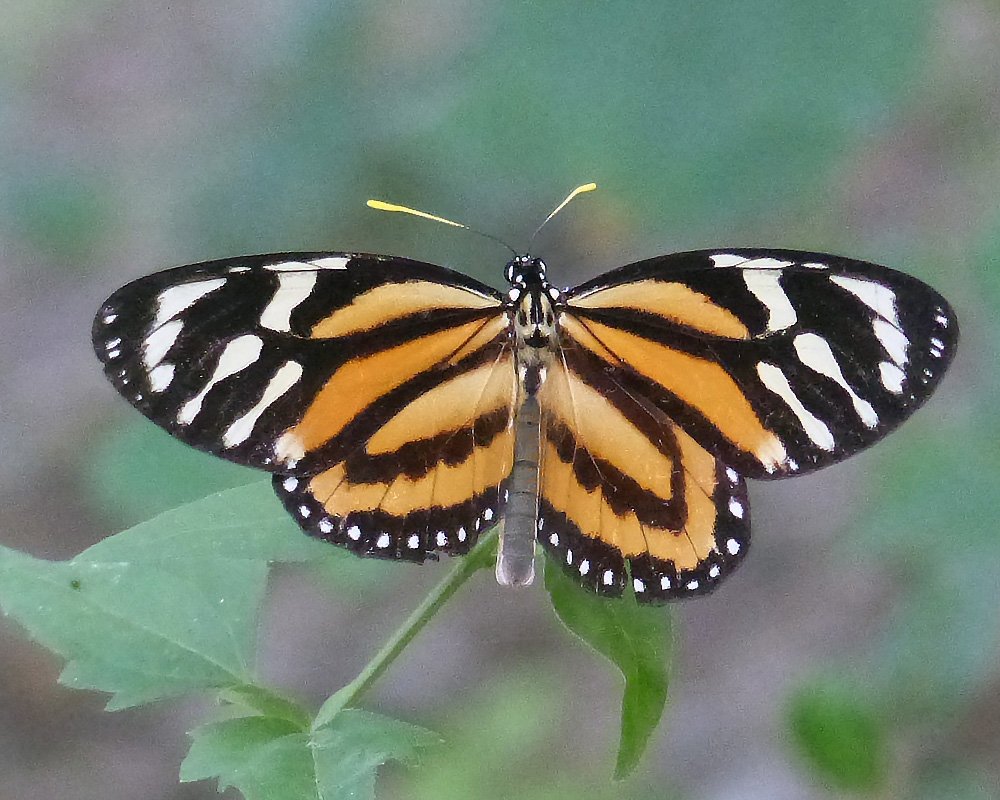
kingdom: Animalia
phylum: Arthropoda
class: Insecta
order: Lepidoptera
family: Nymphalidae
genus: Lycorea
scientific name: Lycorea cleobaea
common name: Tiger Mimic-Queen
